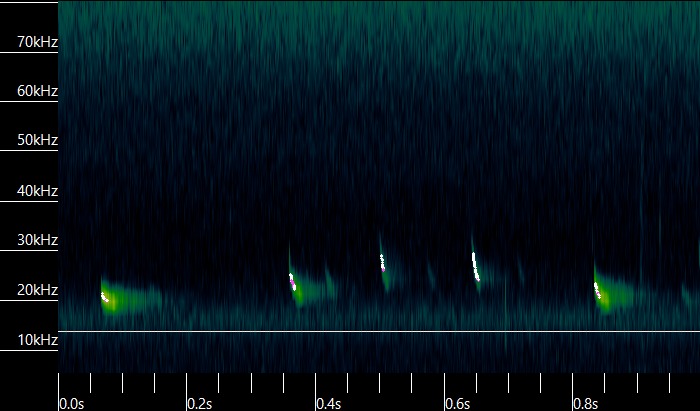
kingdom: Animalia
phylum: Chordata
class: Mammalia
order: Chiroptera
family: Vespertilionidae
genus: Nyctalus
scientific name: Nyctalus noctula
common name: Brunflagermus
